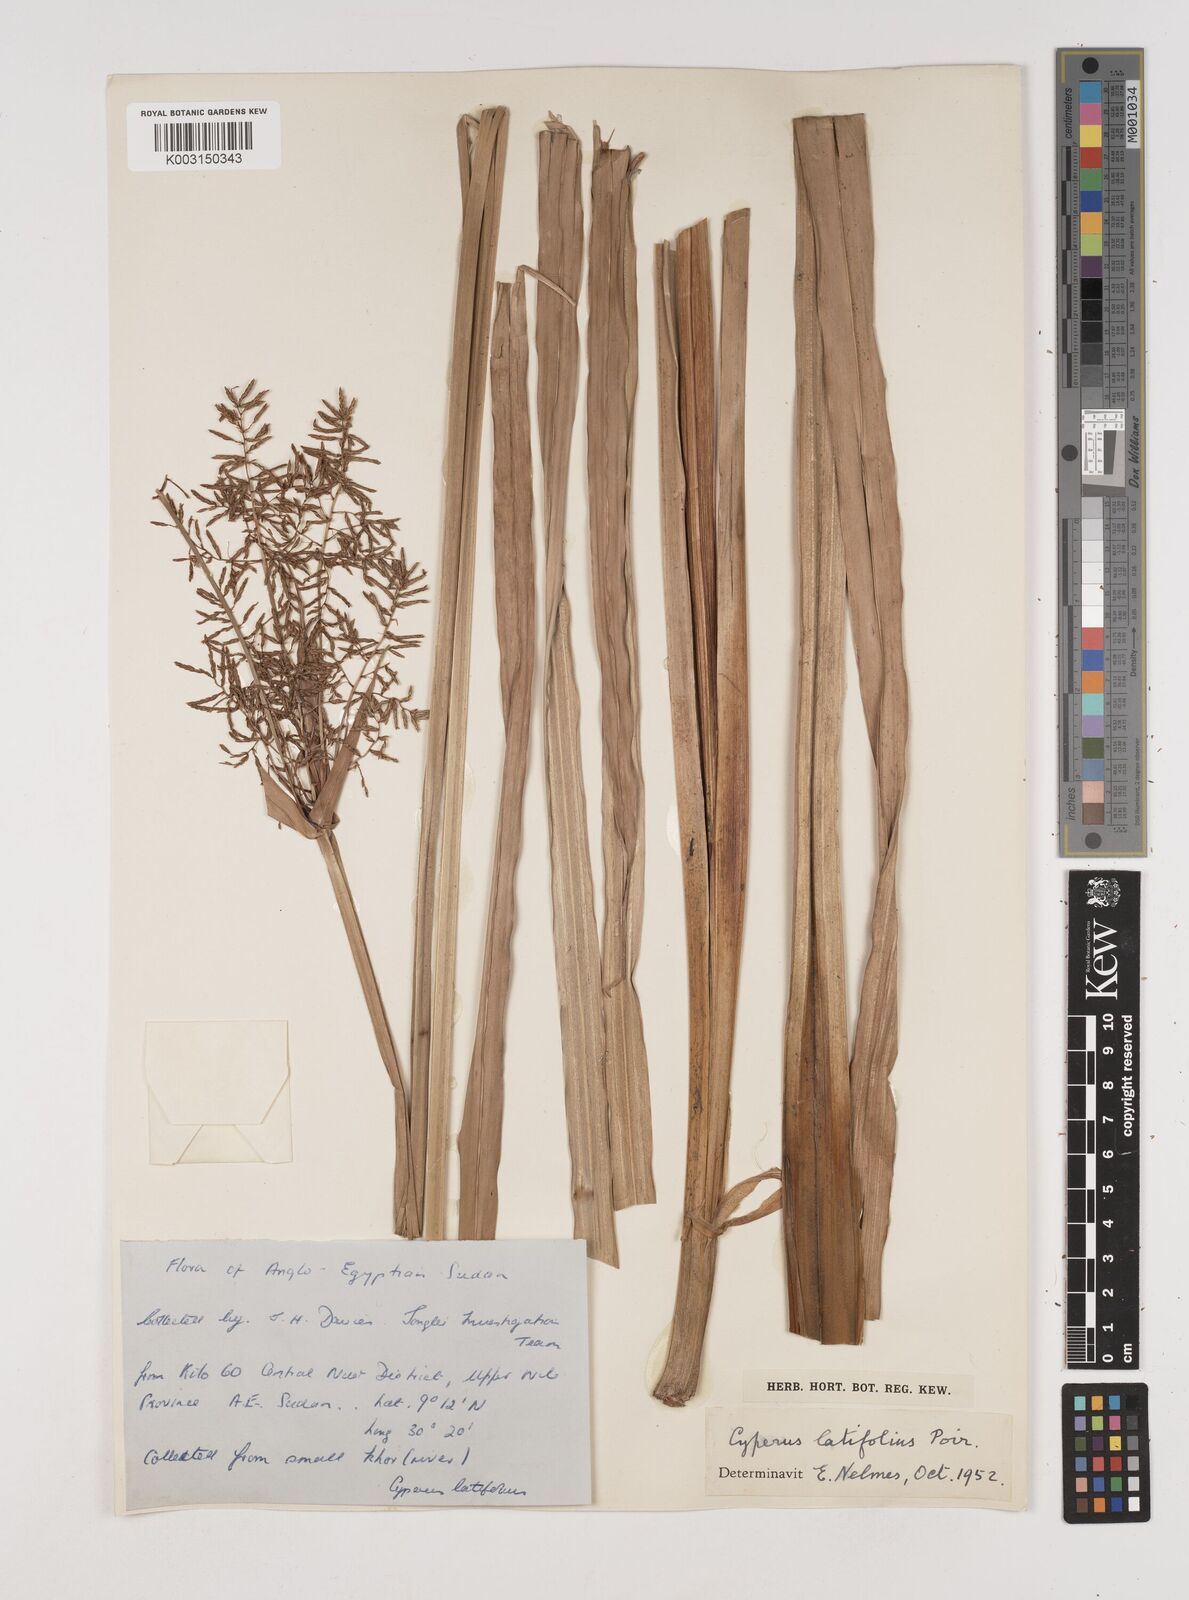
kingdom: Plantae
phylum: Tracheophyta
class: Liliopsida
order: Poales
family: Cyperaceae
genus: Cyperus
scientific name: Cyperus latifolius
